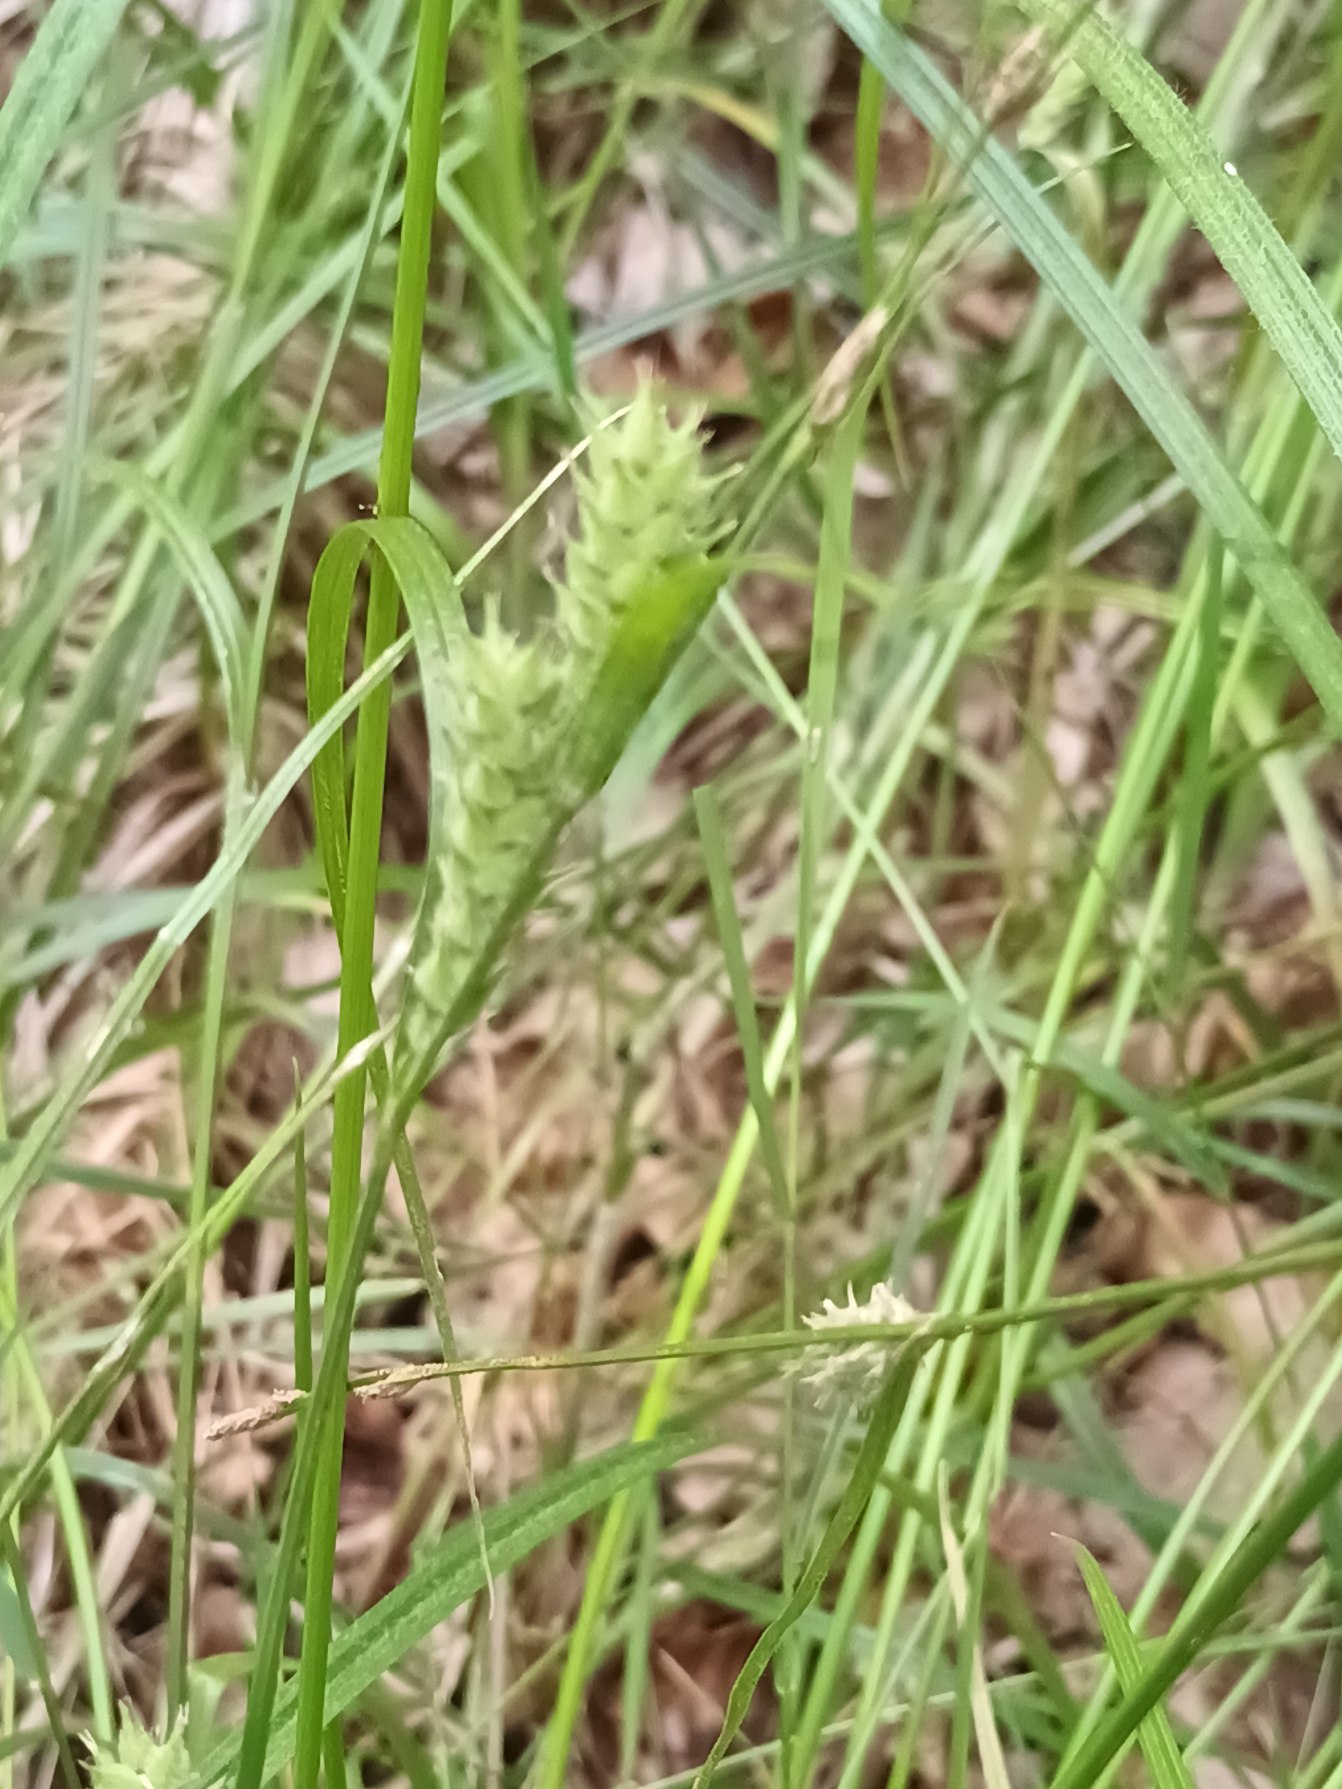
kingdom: Plantae
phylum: Tracheophyta
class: Liliopsida
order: Poales
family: Cyperaceae
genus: Carex
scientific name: Carex hirta
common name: Håret star
